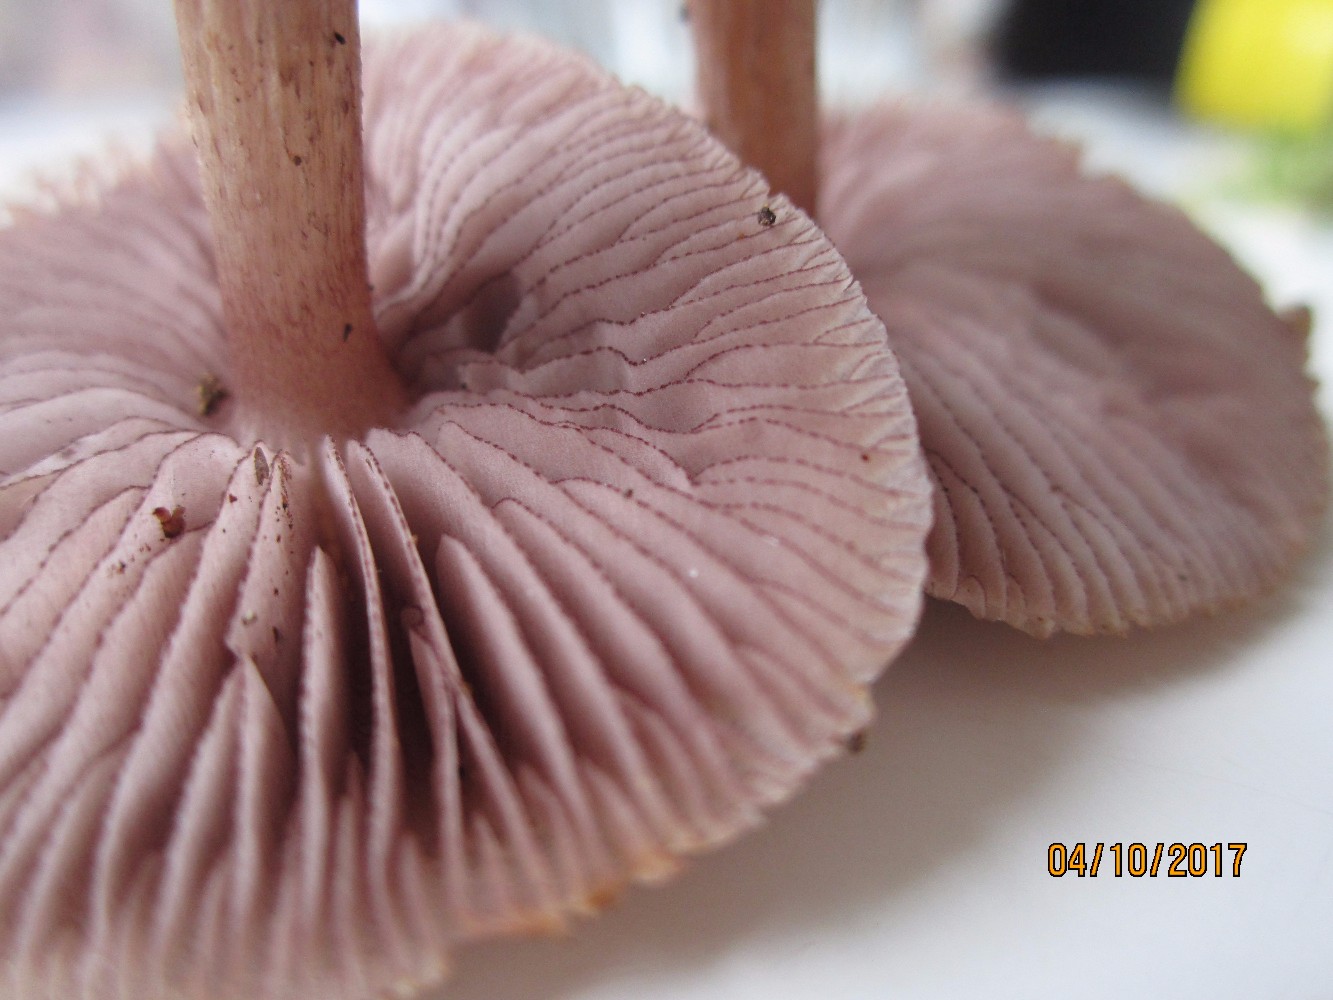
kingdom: Fungi
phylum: Basidiomycota
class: Agaricomycetes
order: Agaricales
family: Mycenaceae
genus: Mycena
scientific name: Mycena pelianthina
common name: mørkbladet huesvamp
